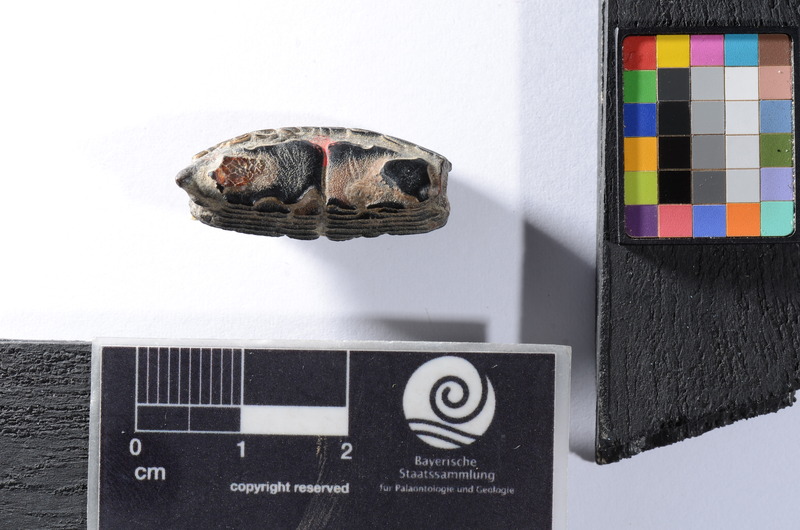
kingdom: Animalia
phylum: Chordata
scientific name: Chordata
